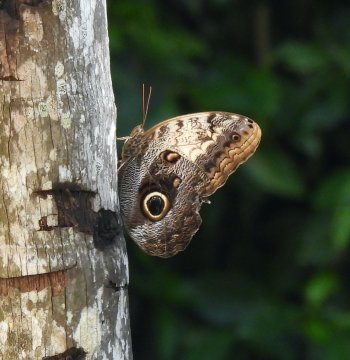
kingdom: Animalia
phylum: Arthropoda
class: Insecta
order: Lepidoptera
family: Nymphalidae
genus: Caligo
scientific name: Caligo telamonius
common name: Pale Owl-Butterfly
